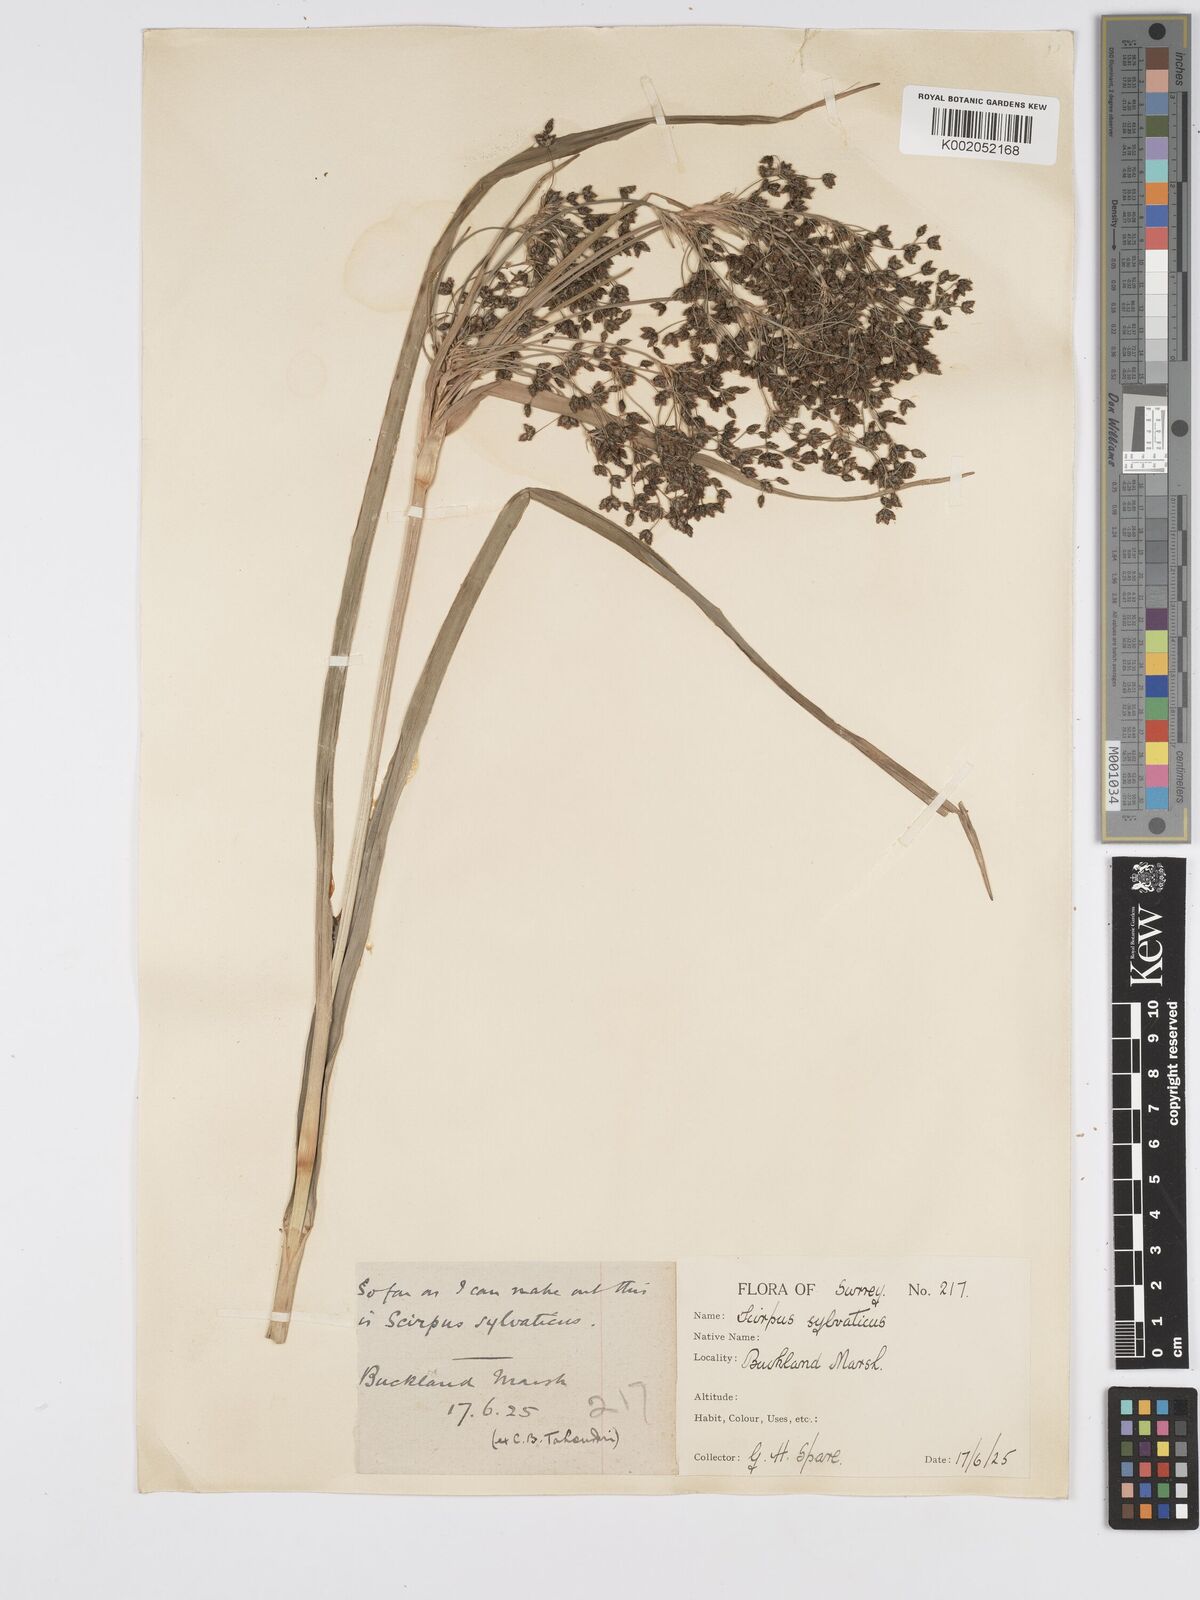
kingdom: Plantae
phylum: Tracheophyta
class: Liliopsida
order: Poales
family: Cyperaceae
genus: Scirpus
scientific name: Scirpus sylvaticus
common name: Wood club-rush
